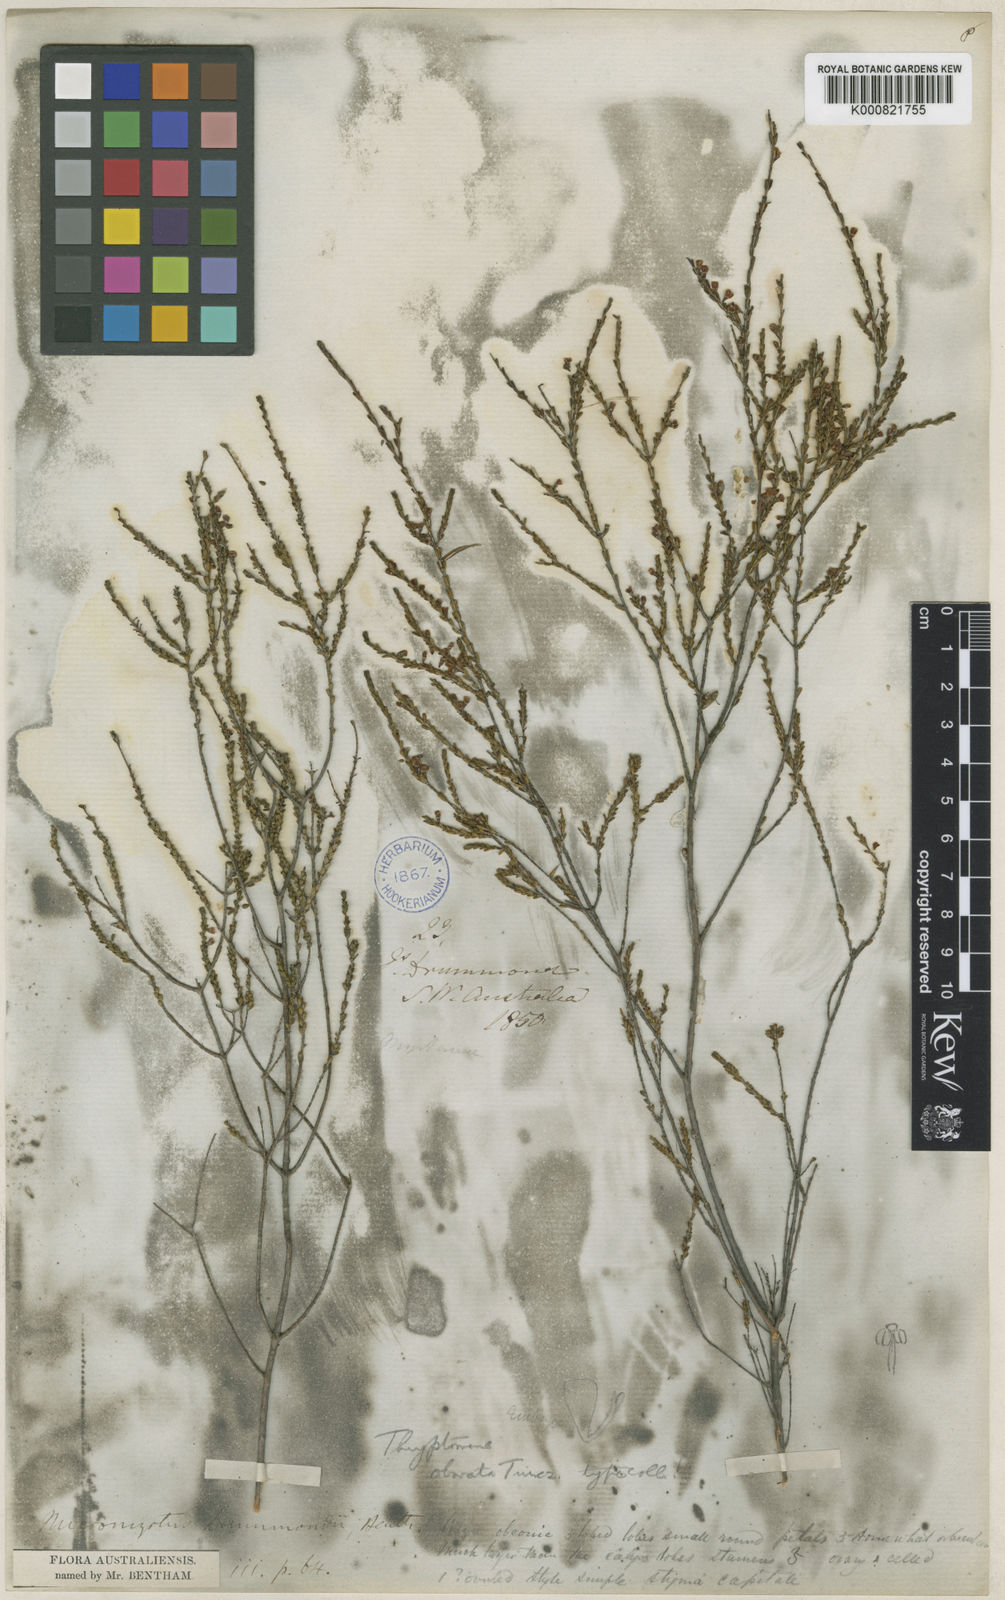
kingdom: Plantae
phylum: Tracheophyta
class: Magnoliopsida
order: Myrtales
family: Myrtaceae
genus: Micromyrtus
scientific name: Micromyrtus obovata
